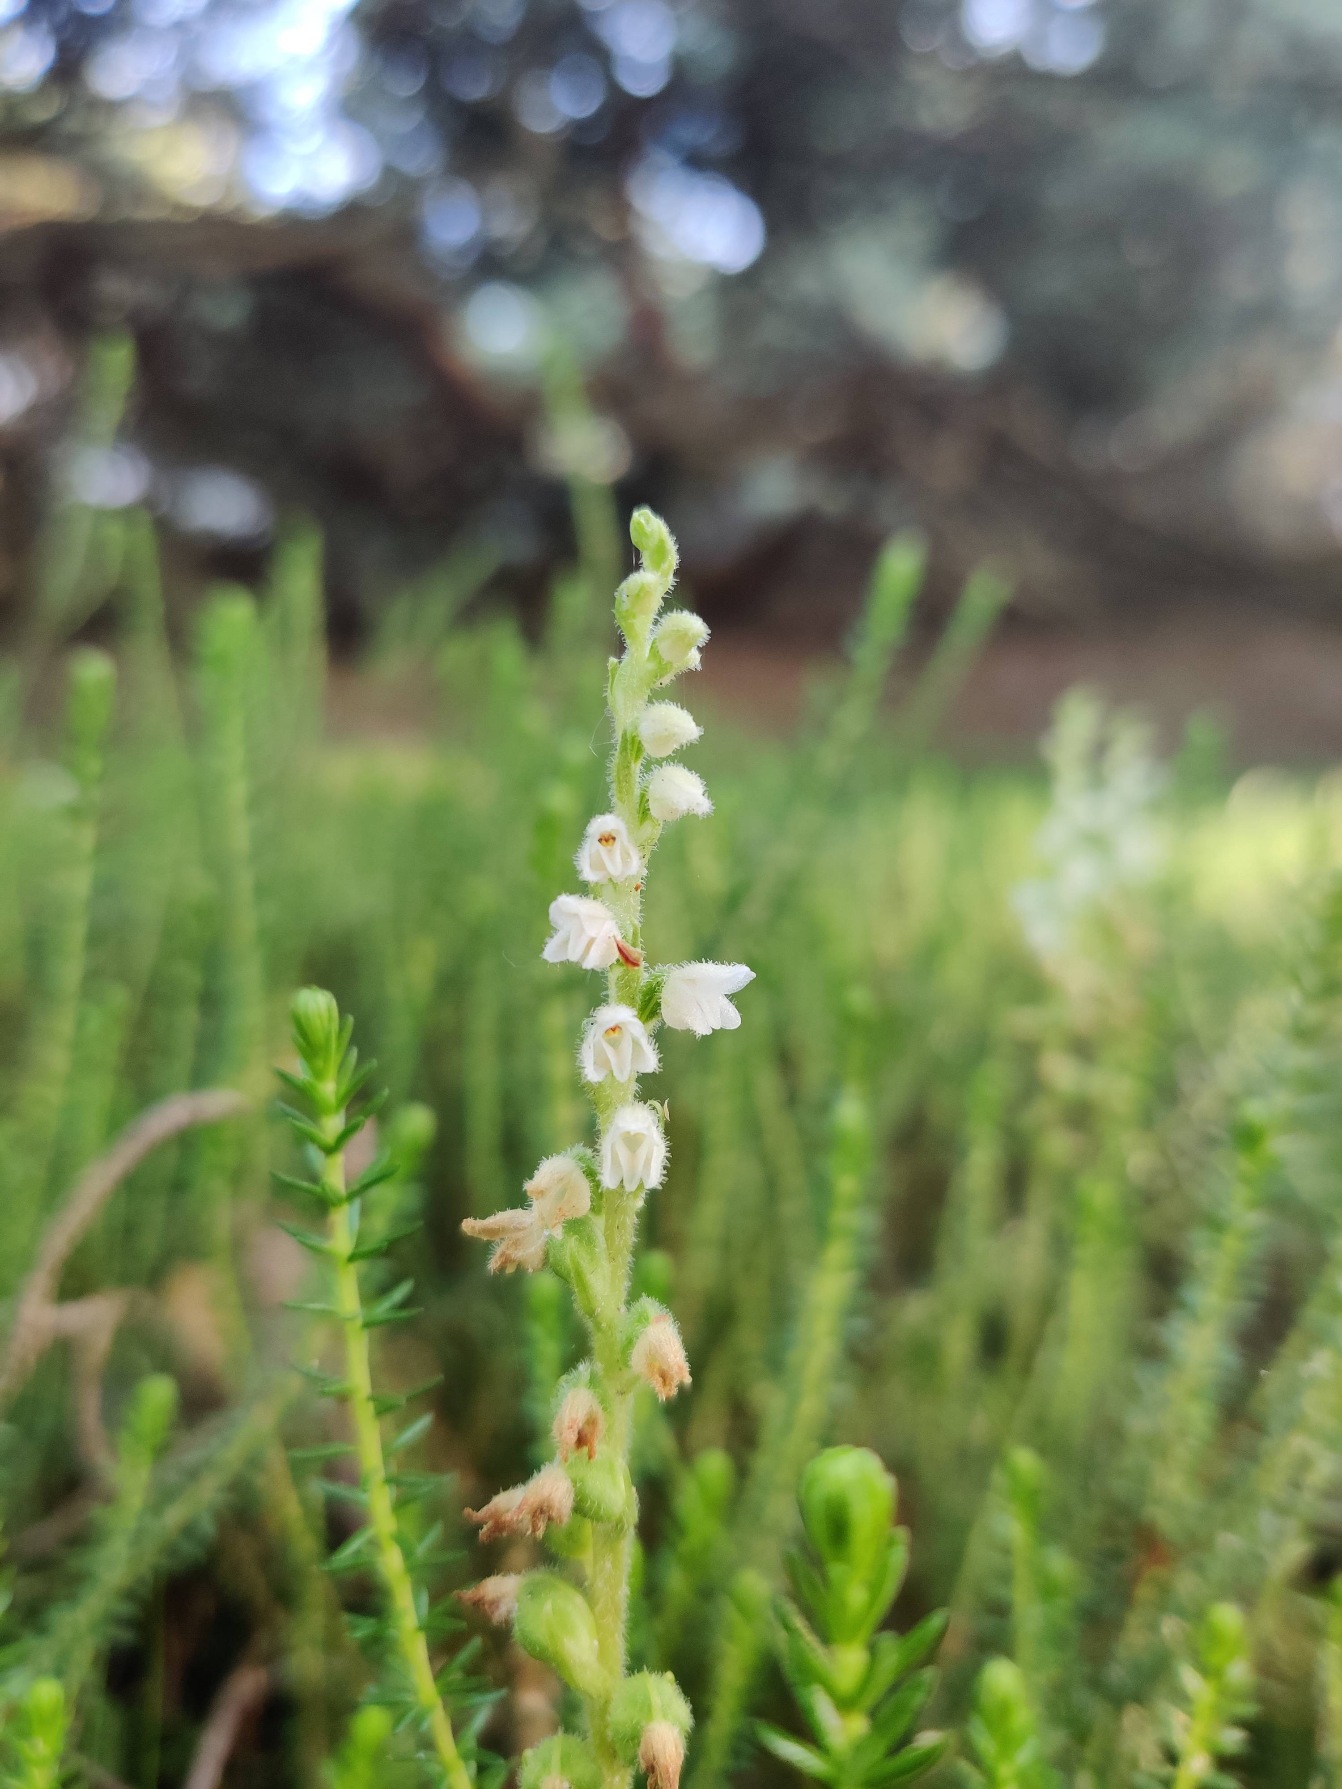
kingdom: Plantae
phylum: Tracheophyta
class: Liliopsida
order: Asparagales
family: Orchidaceae
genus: Goodyera
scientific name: Goodyera repens
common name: Knærod
